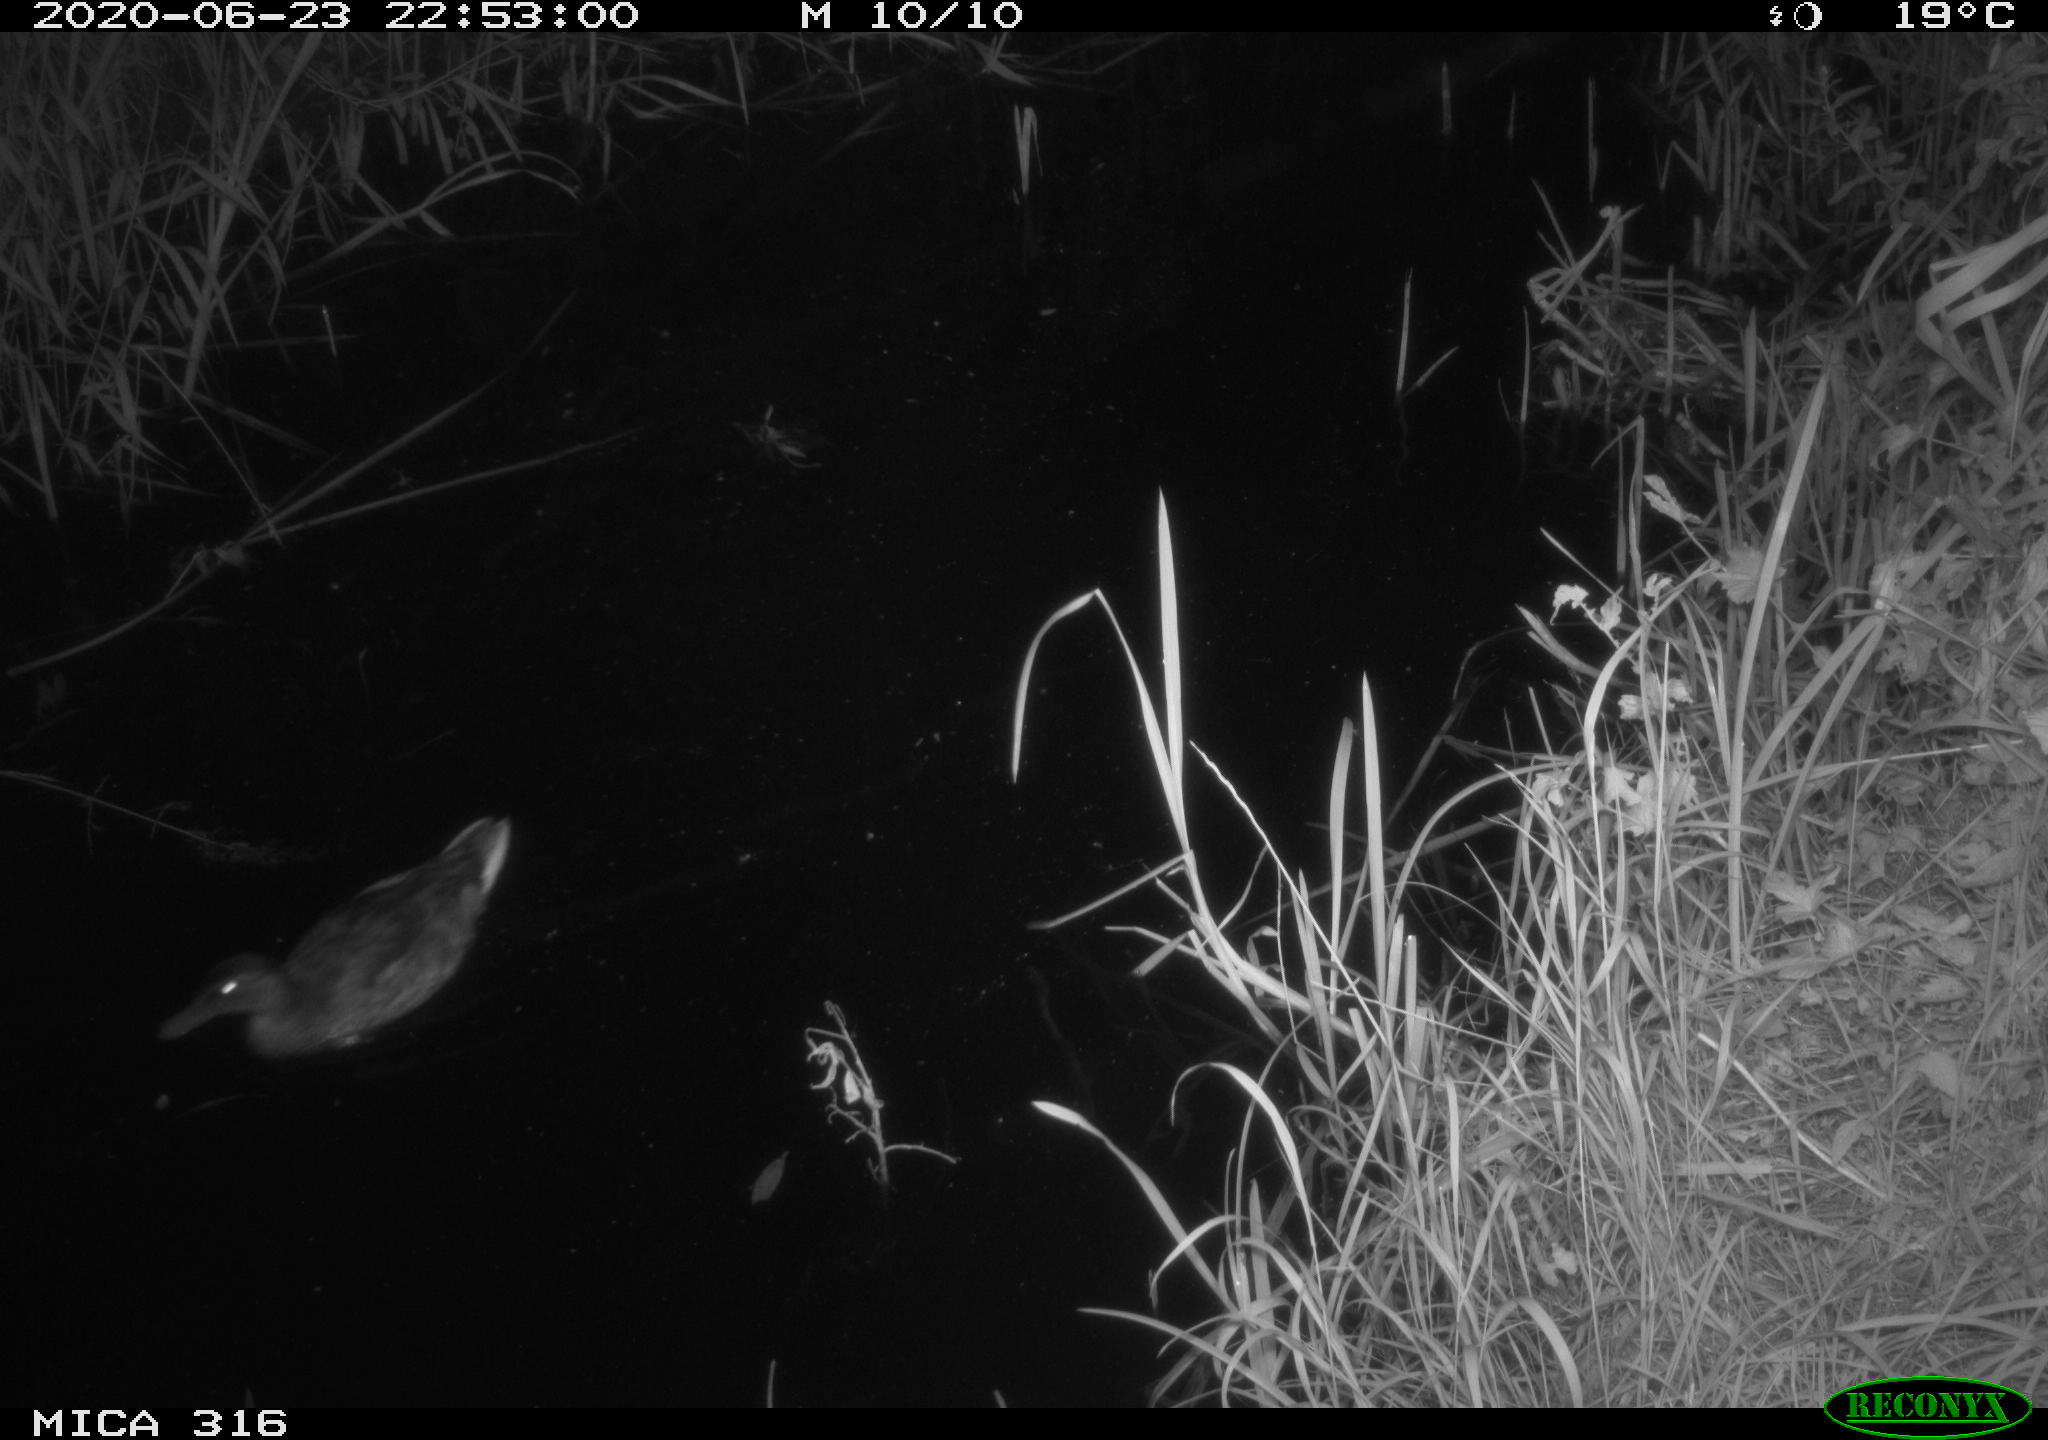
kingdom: Animalia
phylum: Chordata
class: Aves
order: Anseriformes
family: Anatidae
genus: Anas
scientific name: Anas platyrhynchos
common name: Mallard
